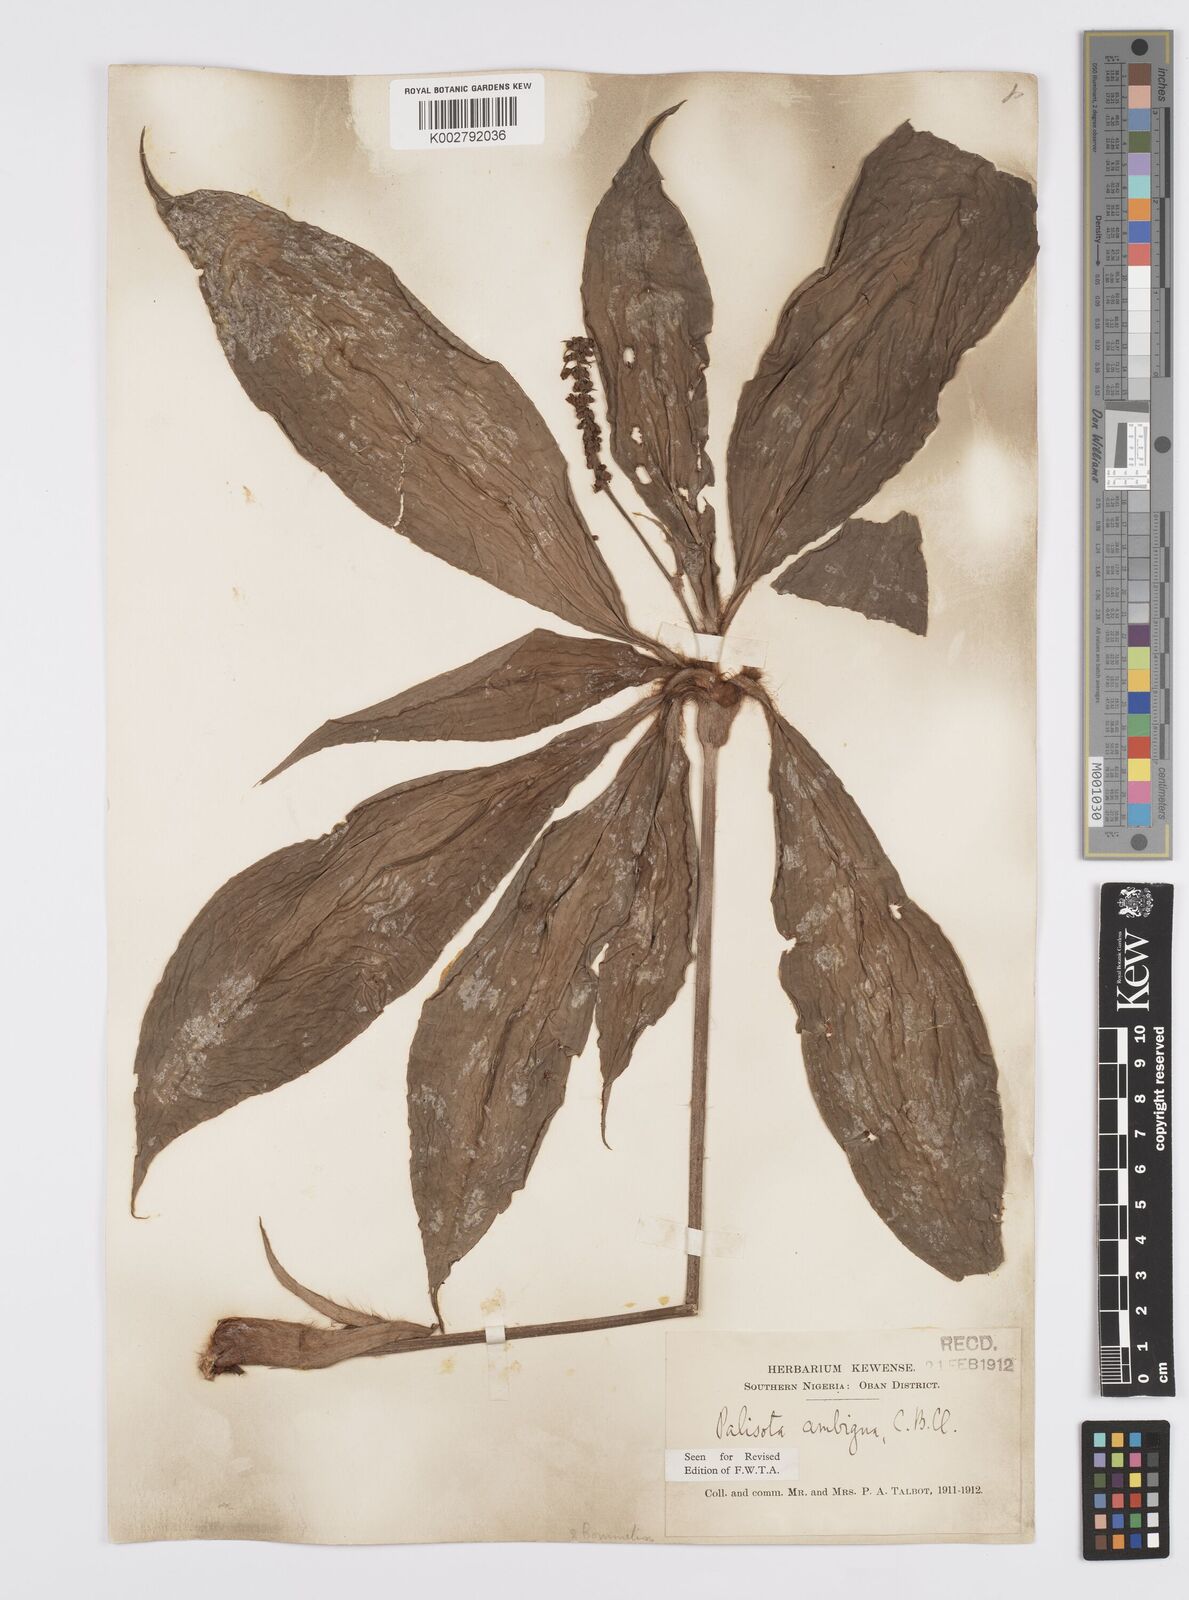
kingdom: Plantae
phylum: Tracheophyta
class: Liliopsida
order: Commelinales
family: Commelinaceae
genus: Palisota
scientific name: Palisota ambigua
